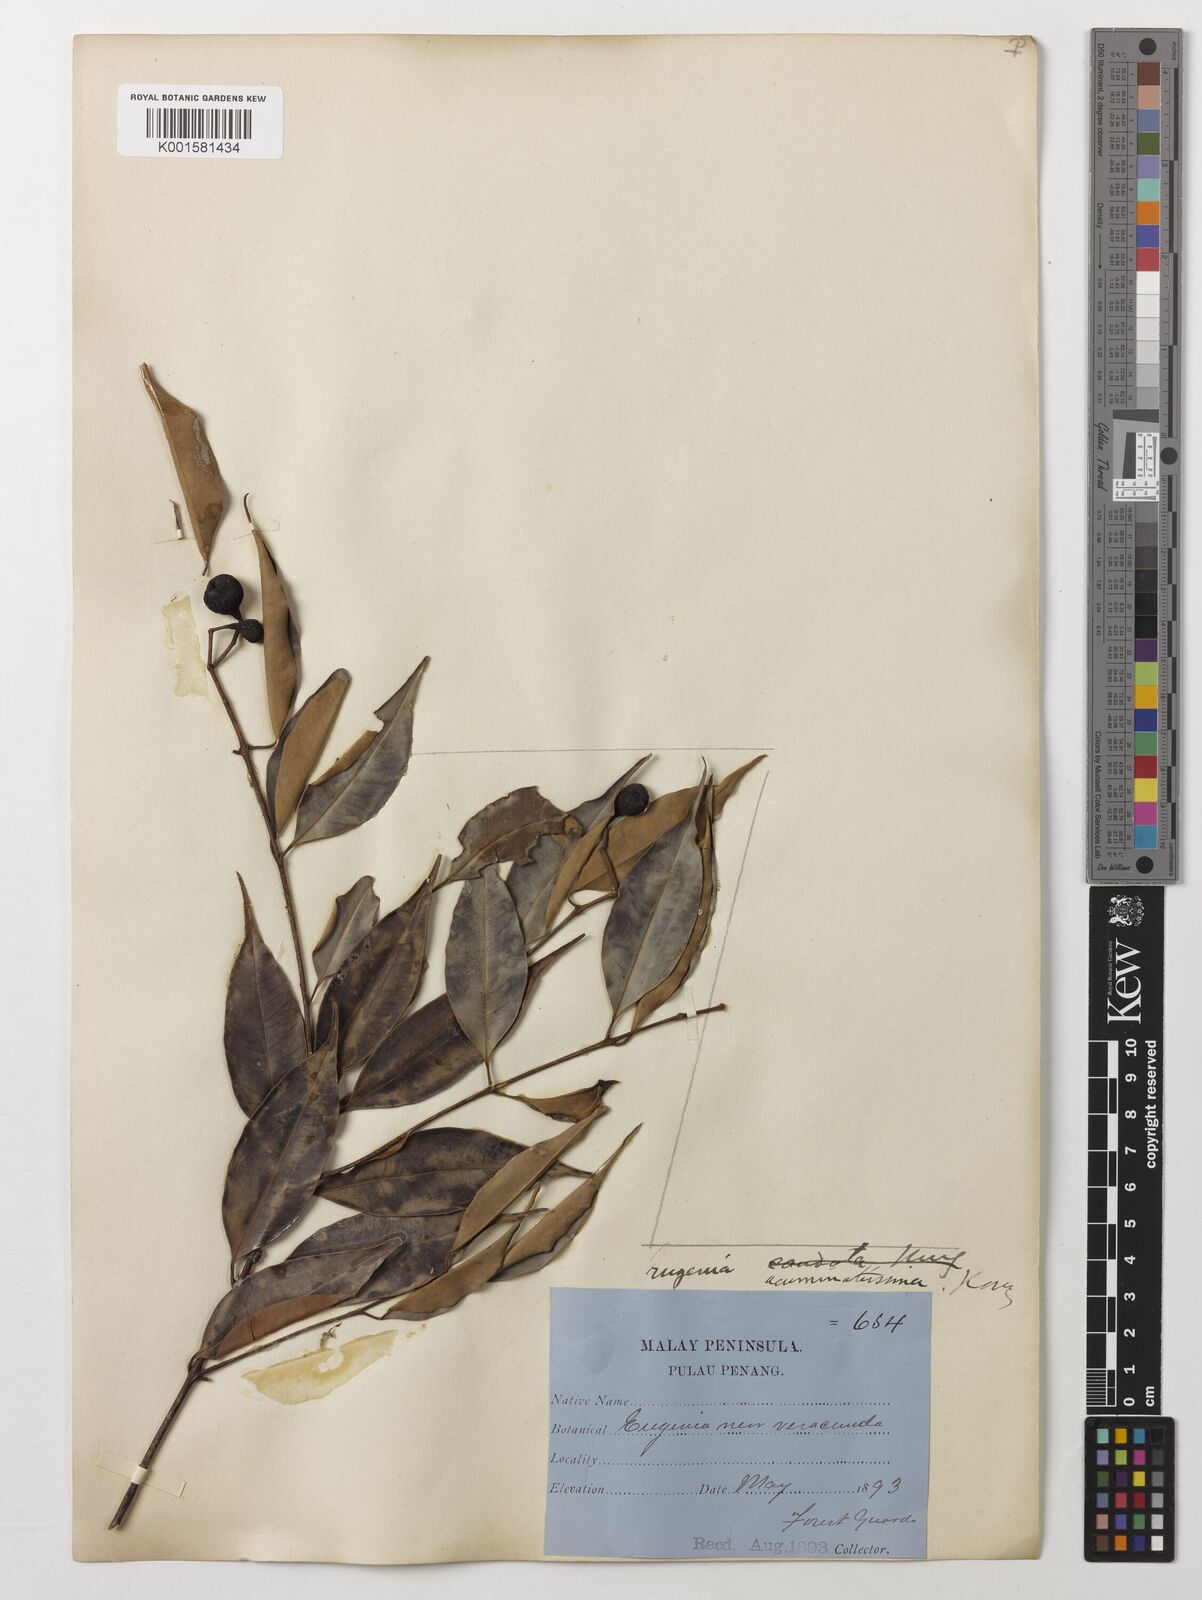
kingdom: Plantae
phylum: Tracheophyta
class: Magnoliopsida
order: Myrtales
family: Myrtaceae
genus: Eugenia
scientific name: Eugenia biflora
